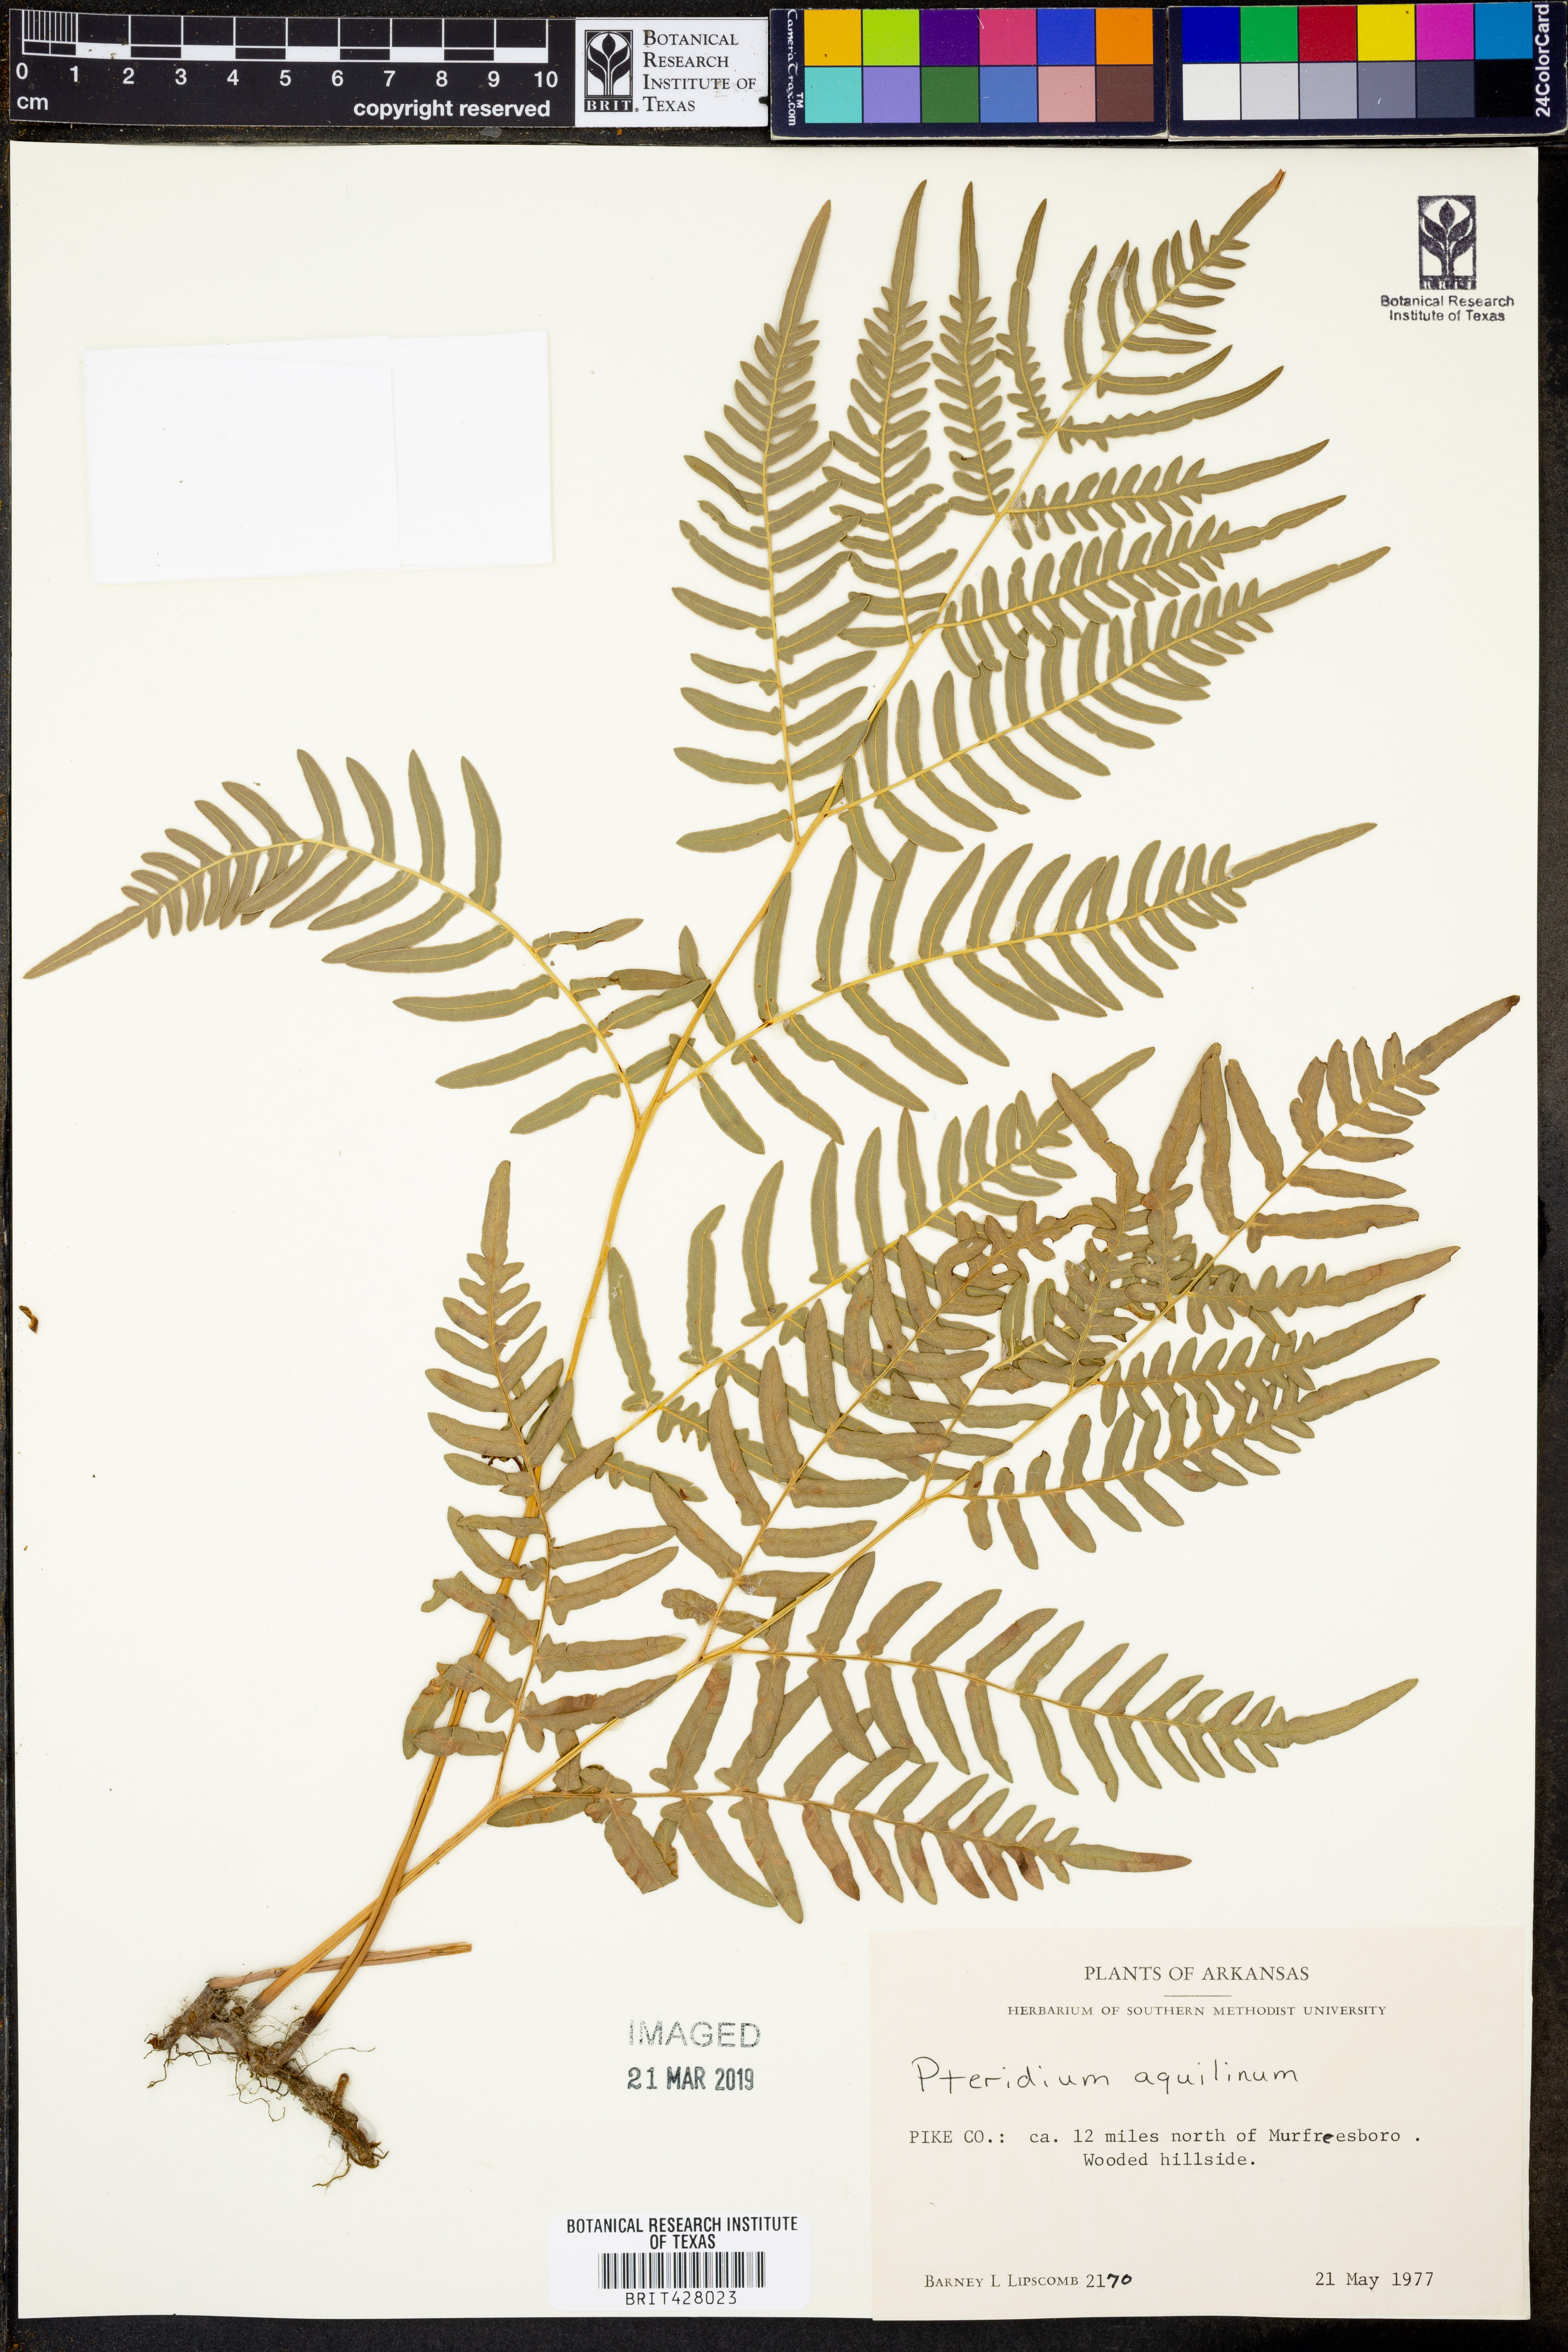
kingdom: Plantae
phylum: Tracheophyta
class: Polypodiopsida
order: Polypodiales
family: Dennstaedtiaceae
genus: Pteridium
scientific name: Pteridium aquilinum
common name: Bracken
